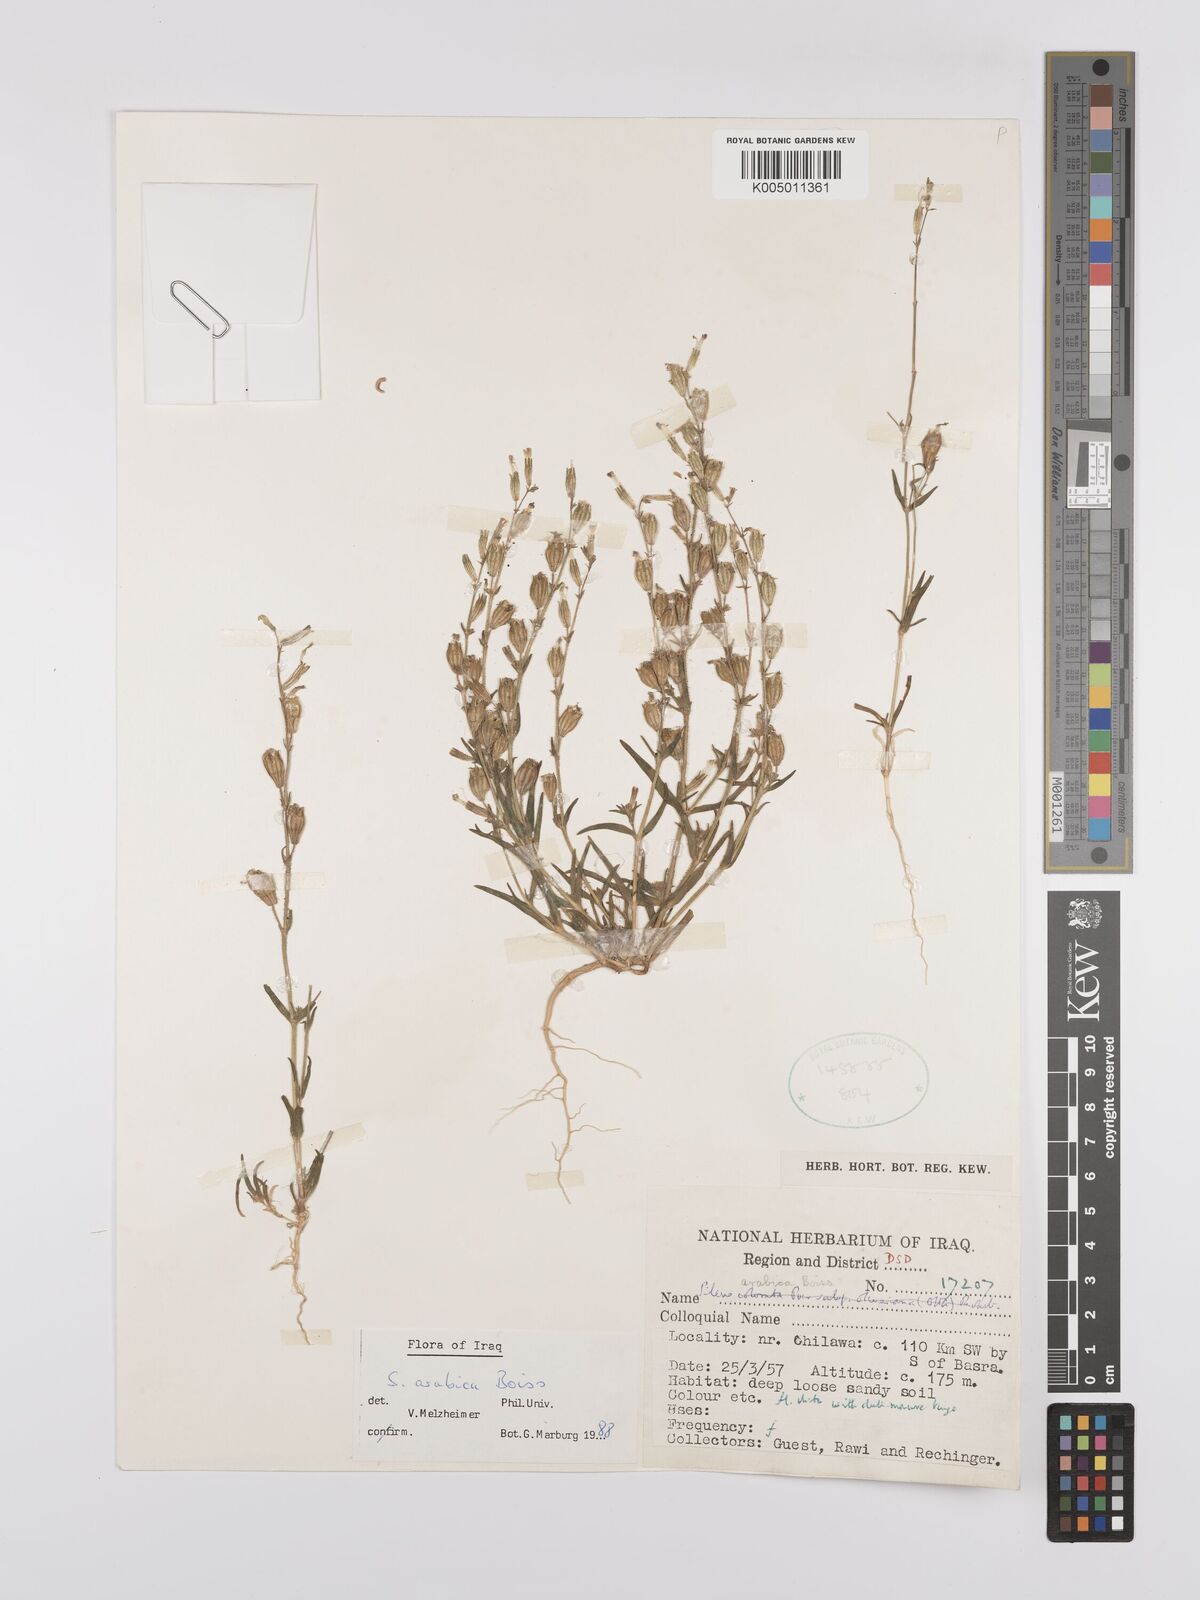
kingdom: Plantae
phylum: Tracheophyta
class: Magnoliopsida
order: Caryophyllales
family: Caryophyllaceae
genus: Silene
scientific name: Silene arabica
